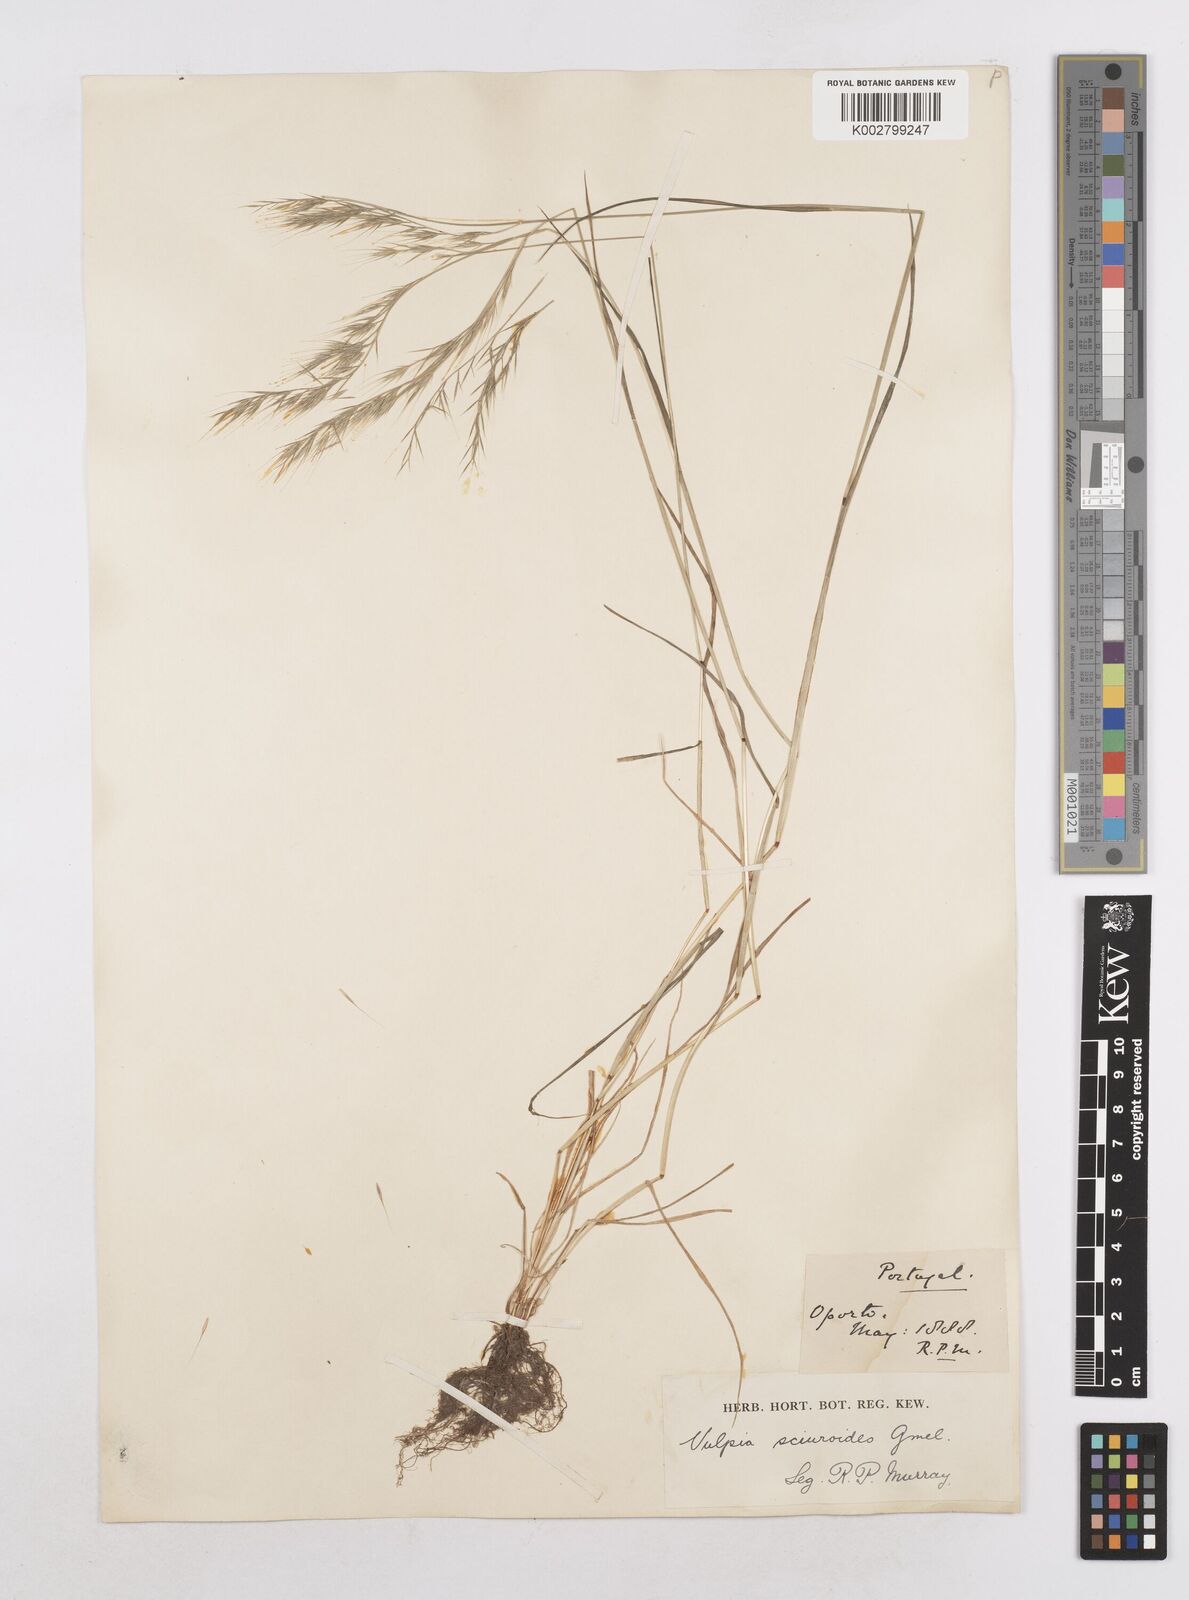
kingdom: Plantae
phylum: Tracheophyta
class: Liliopsida
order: Poales
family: Poaceae
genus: Festuca
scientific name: Festuca bromoides
